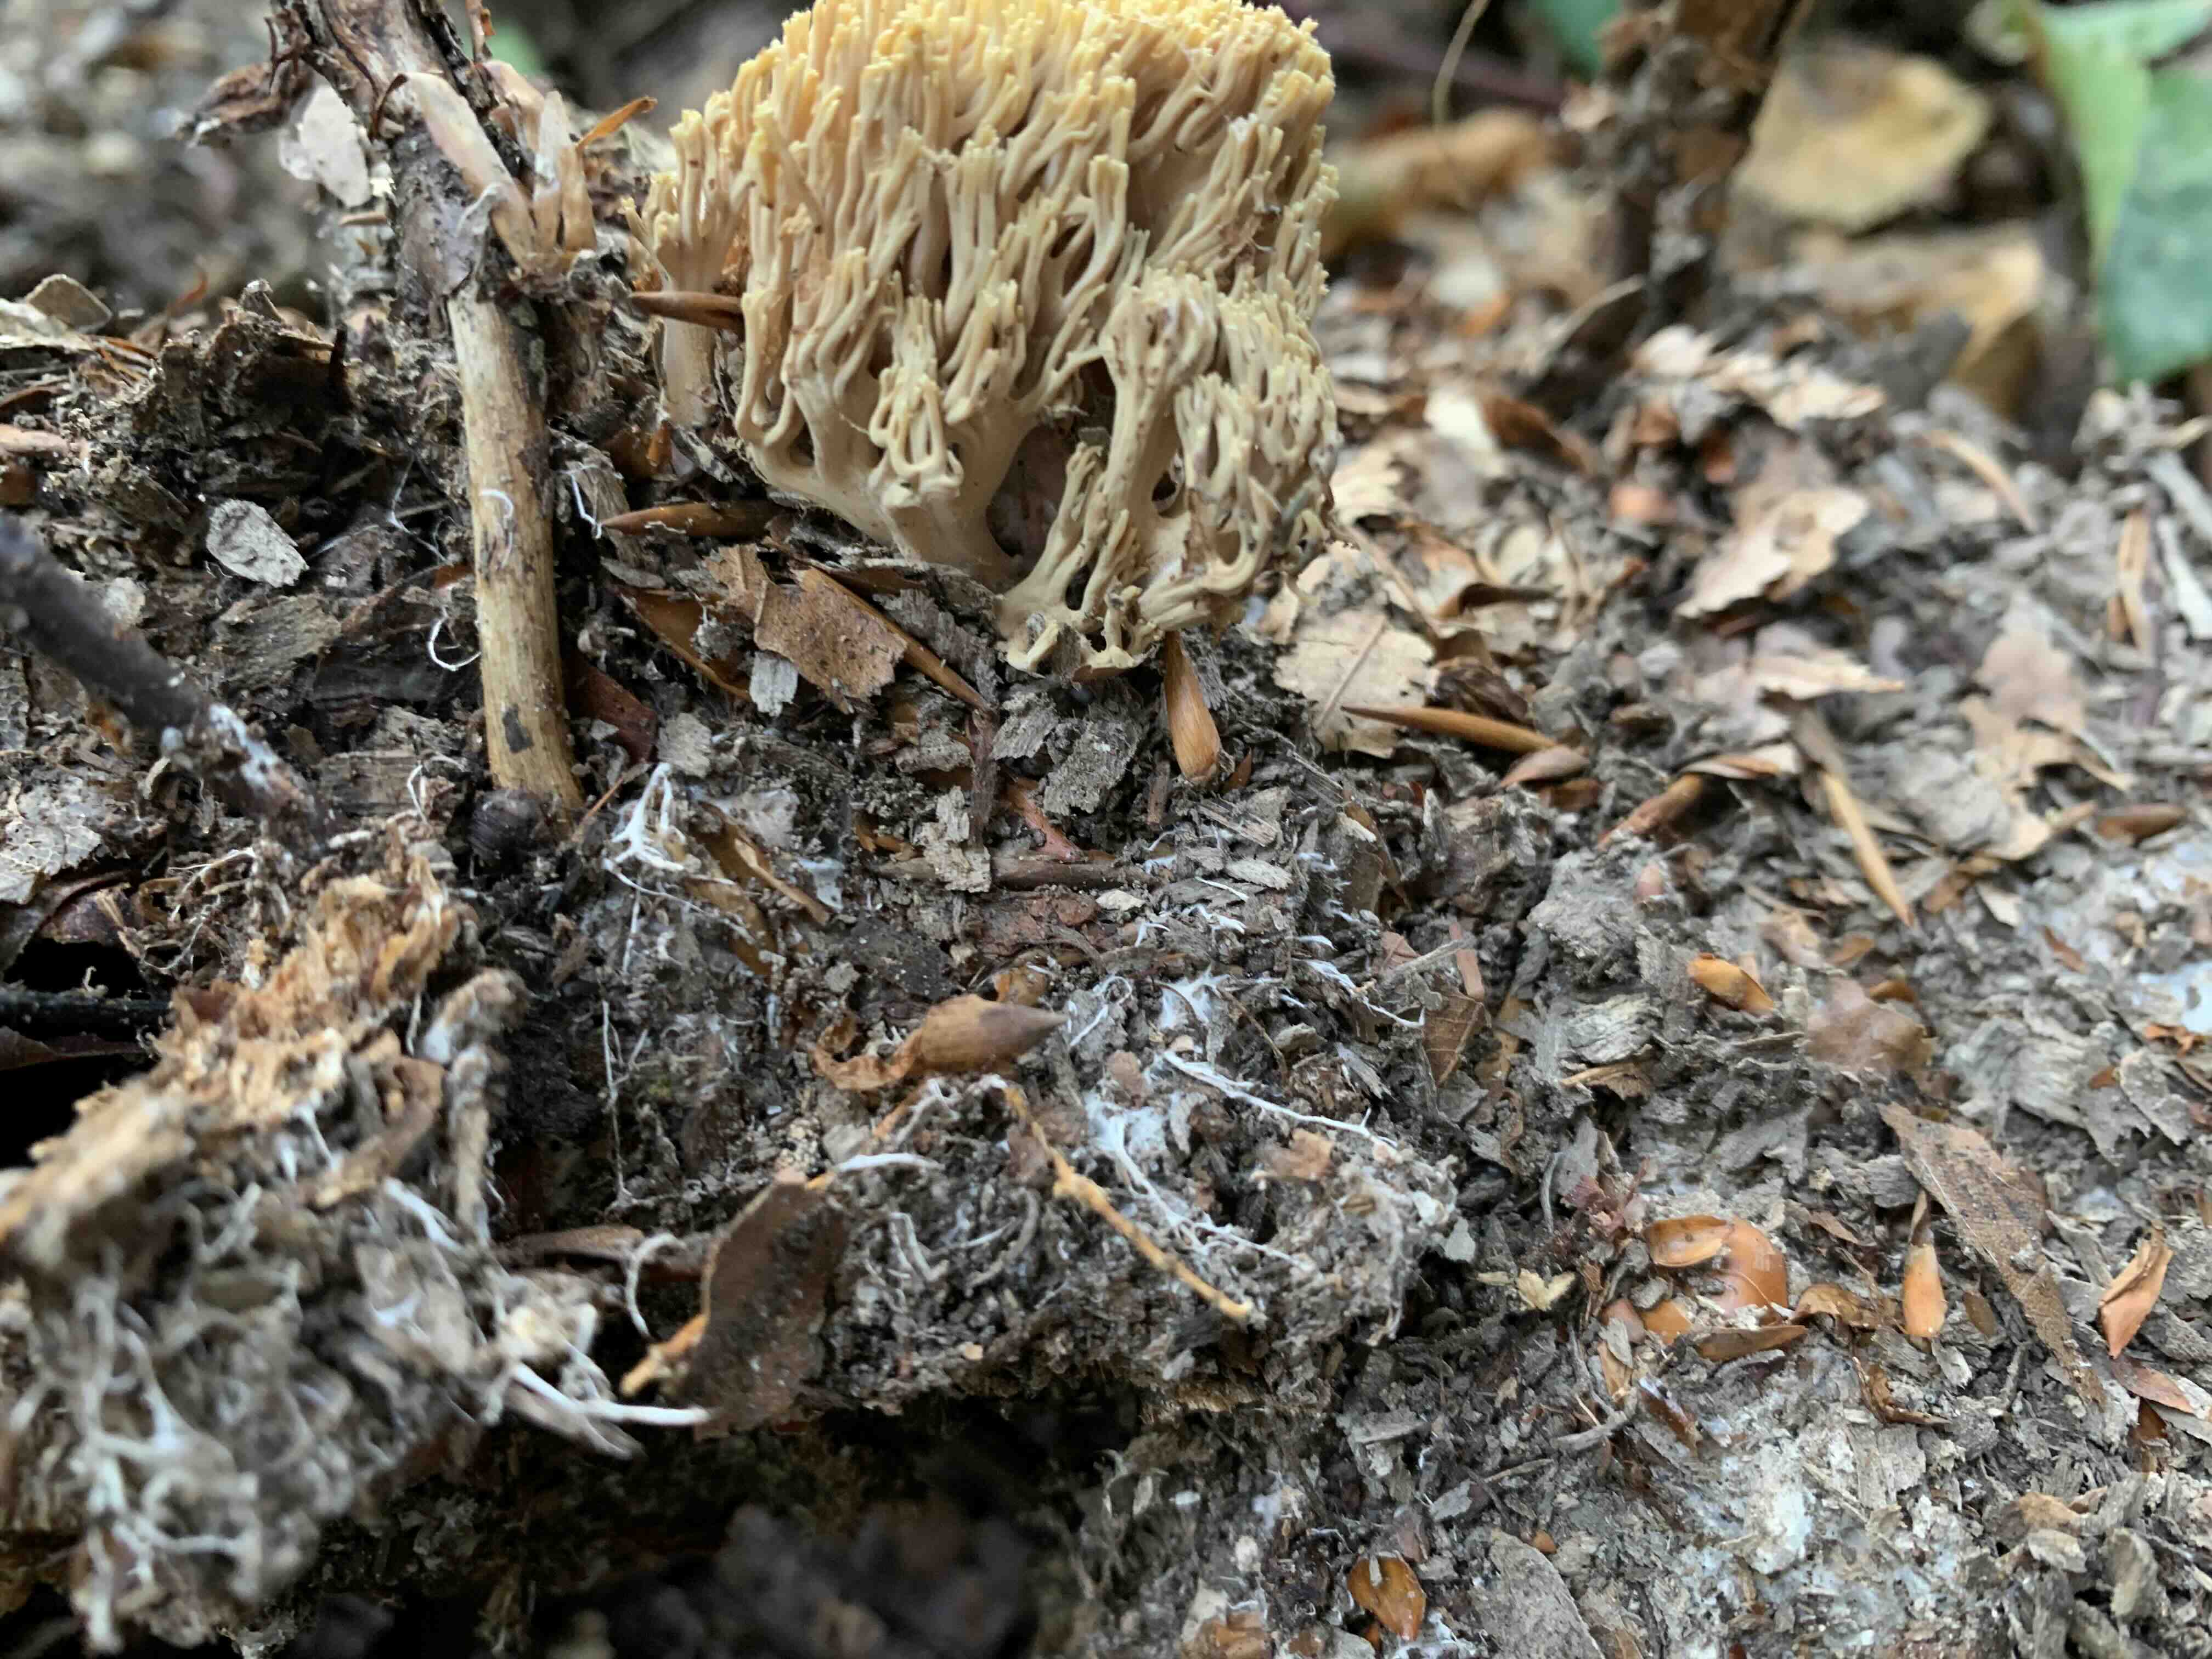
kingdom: Fungi
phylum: Basidiomycota
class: Agaricomycetes
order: Gomphales
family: Gomphaceae
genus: Ramaria
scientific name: Ramaria stricta
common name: rank koralsvamp
